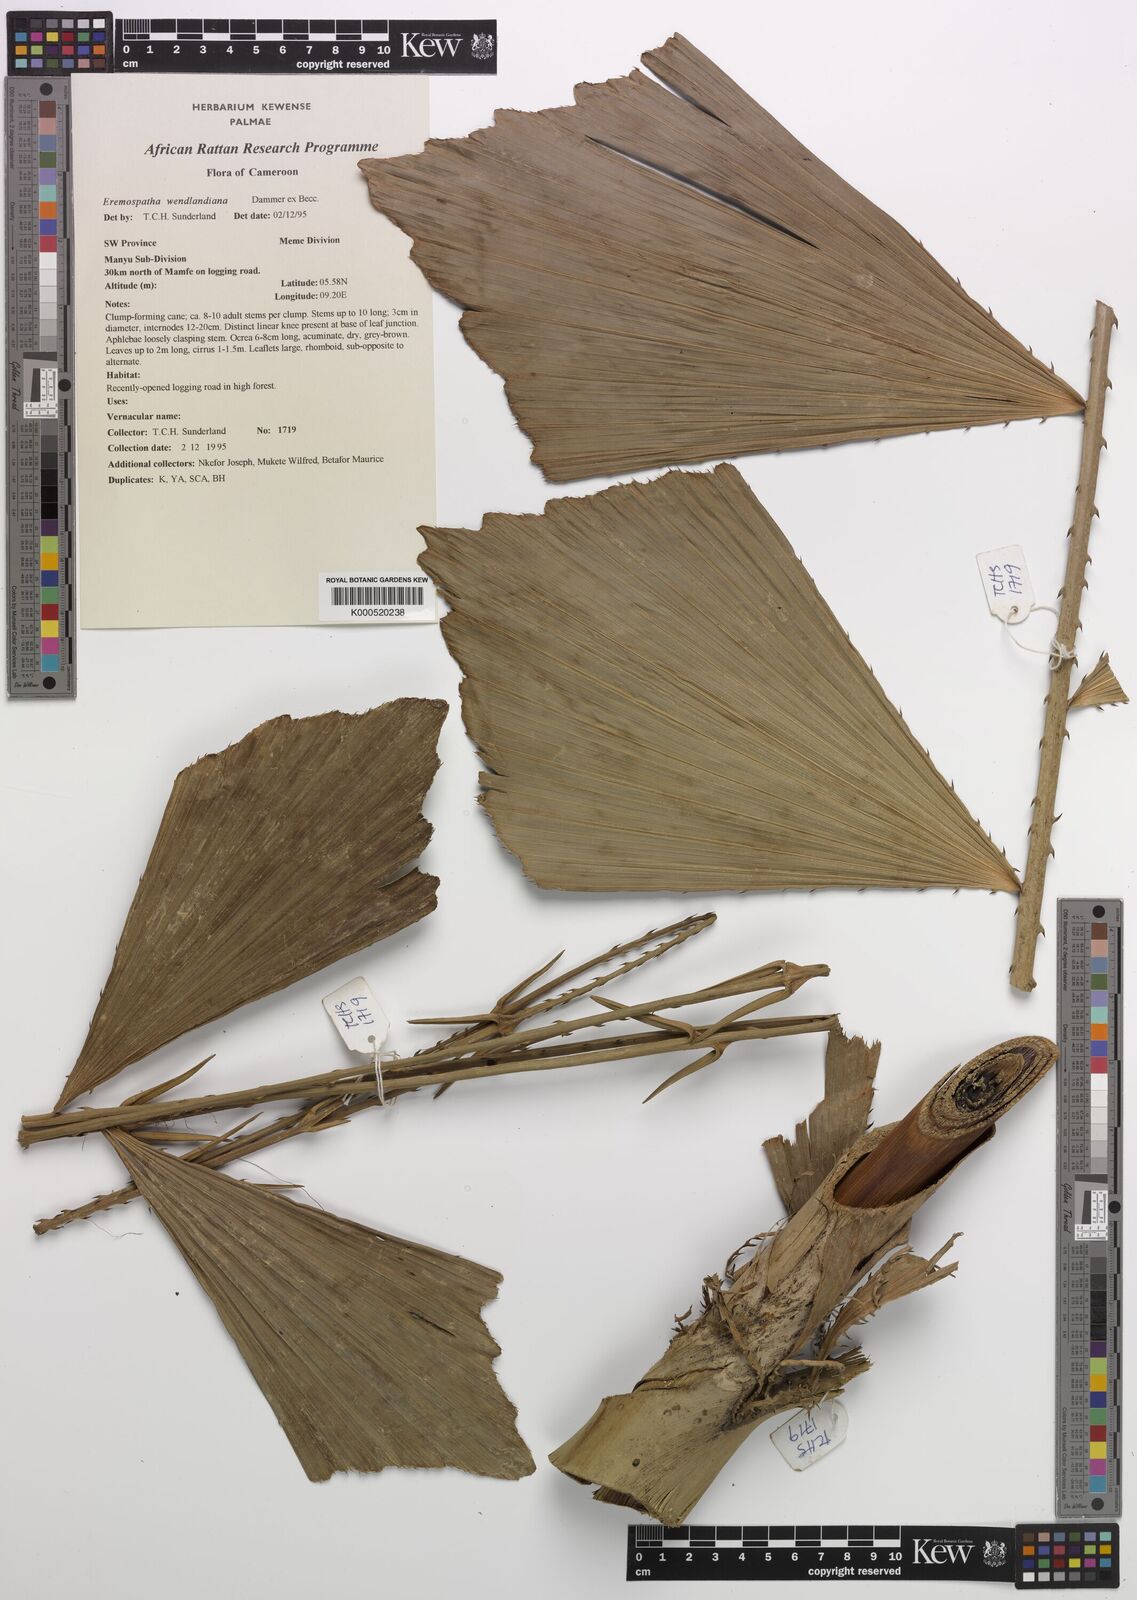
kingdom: Plantae
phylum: Tracheophyta
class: Liliopsida
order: Arecales
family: Arecaceae
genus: Eremospatha
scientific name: Eremospatha wendlandiana
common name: Rattan
